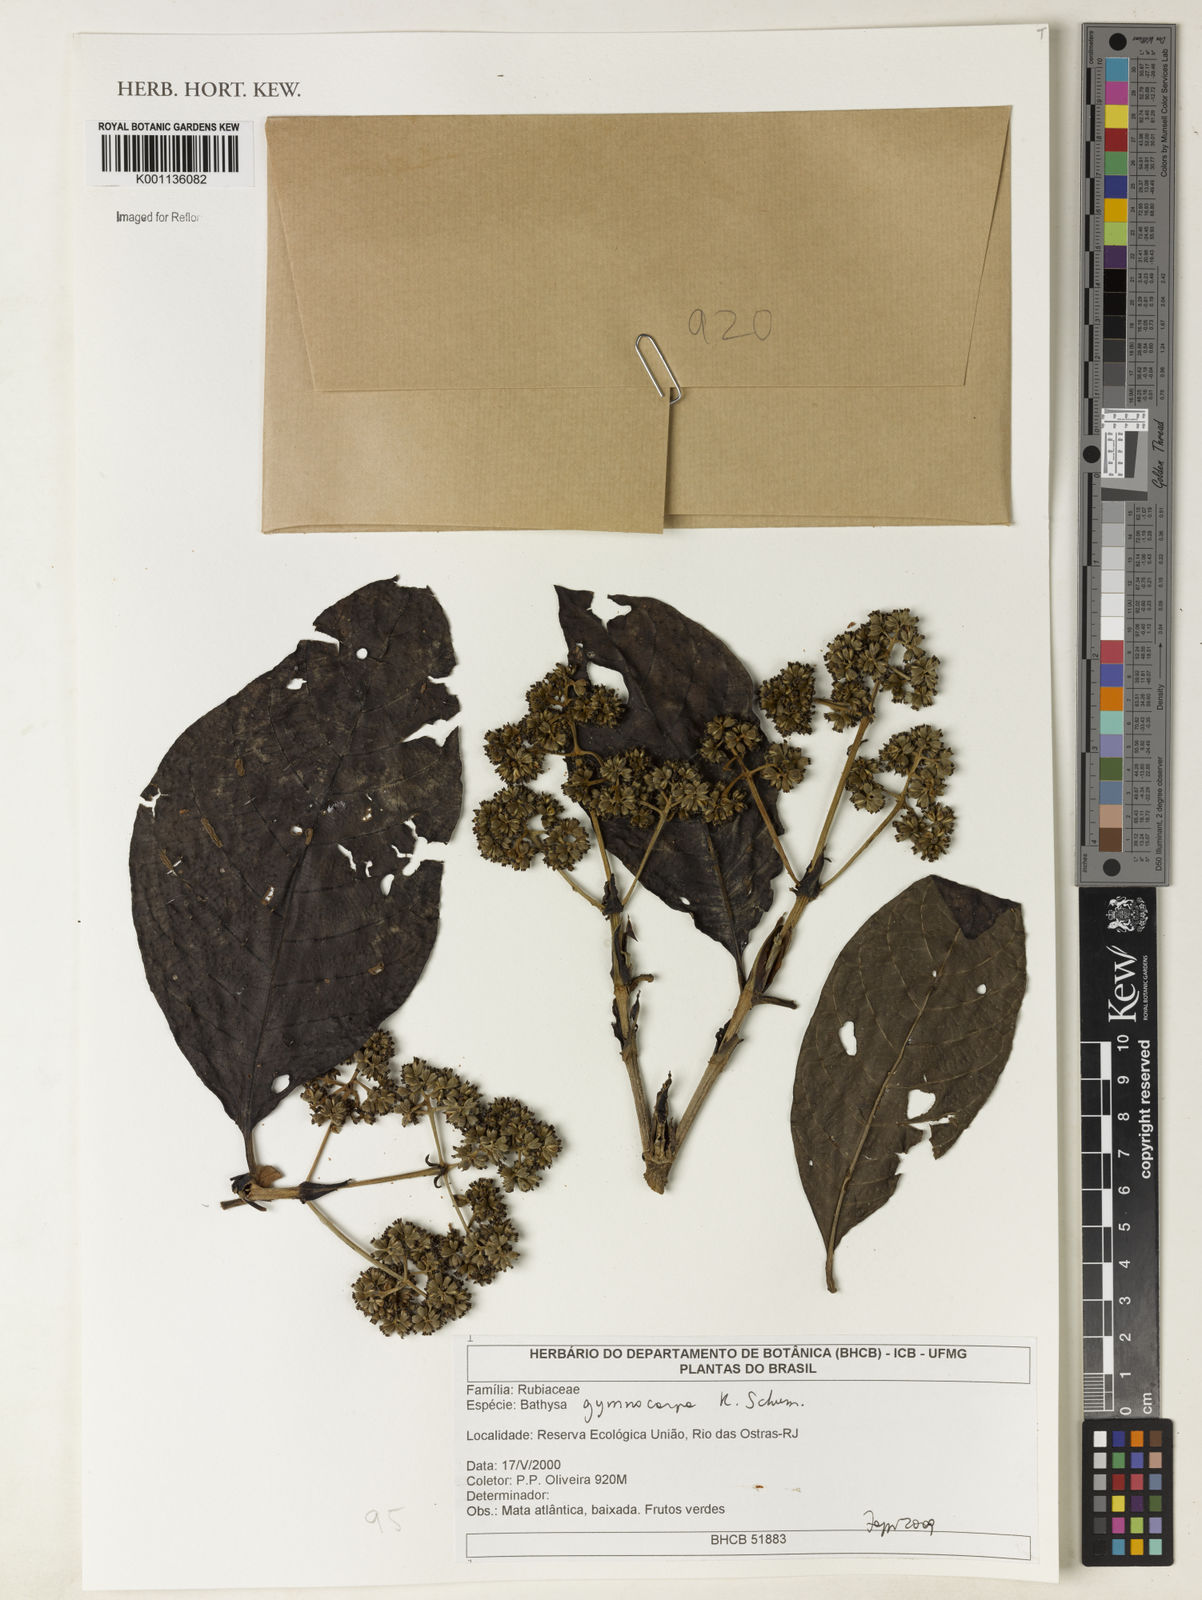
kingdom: Plantae
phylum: Tracheophyta
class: Magnoliopsida
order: Gentianales
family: Rubiaceae
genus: Bathysa
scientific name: Bathysa gymnocarpa
